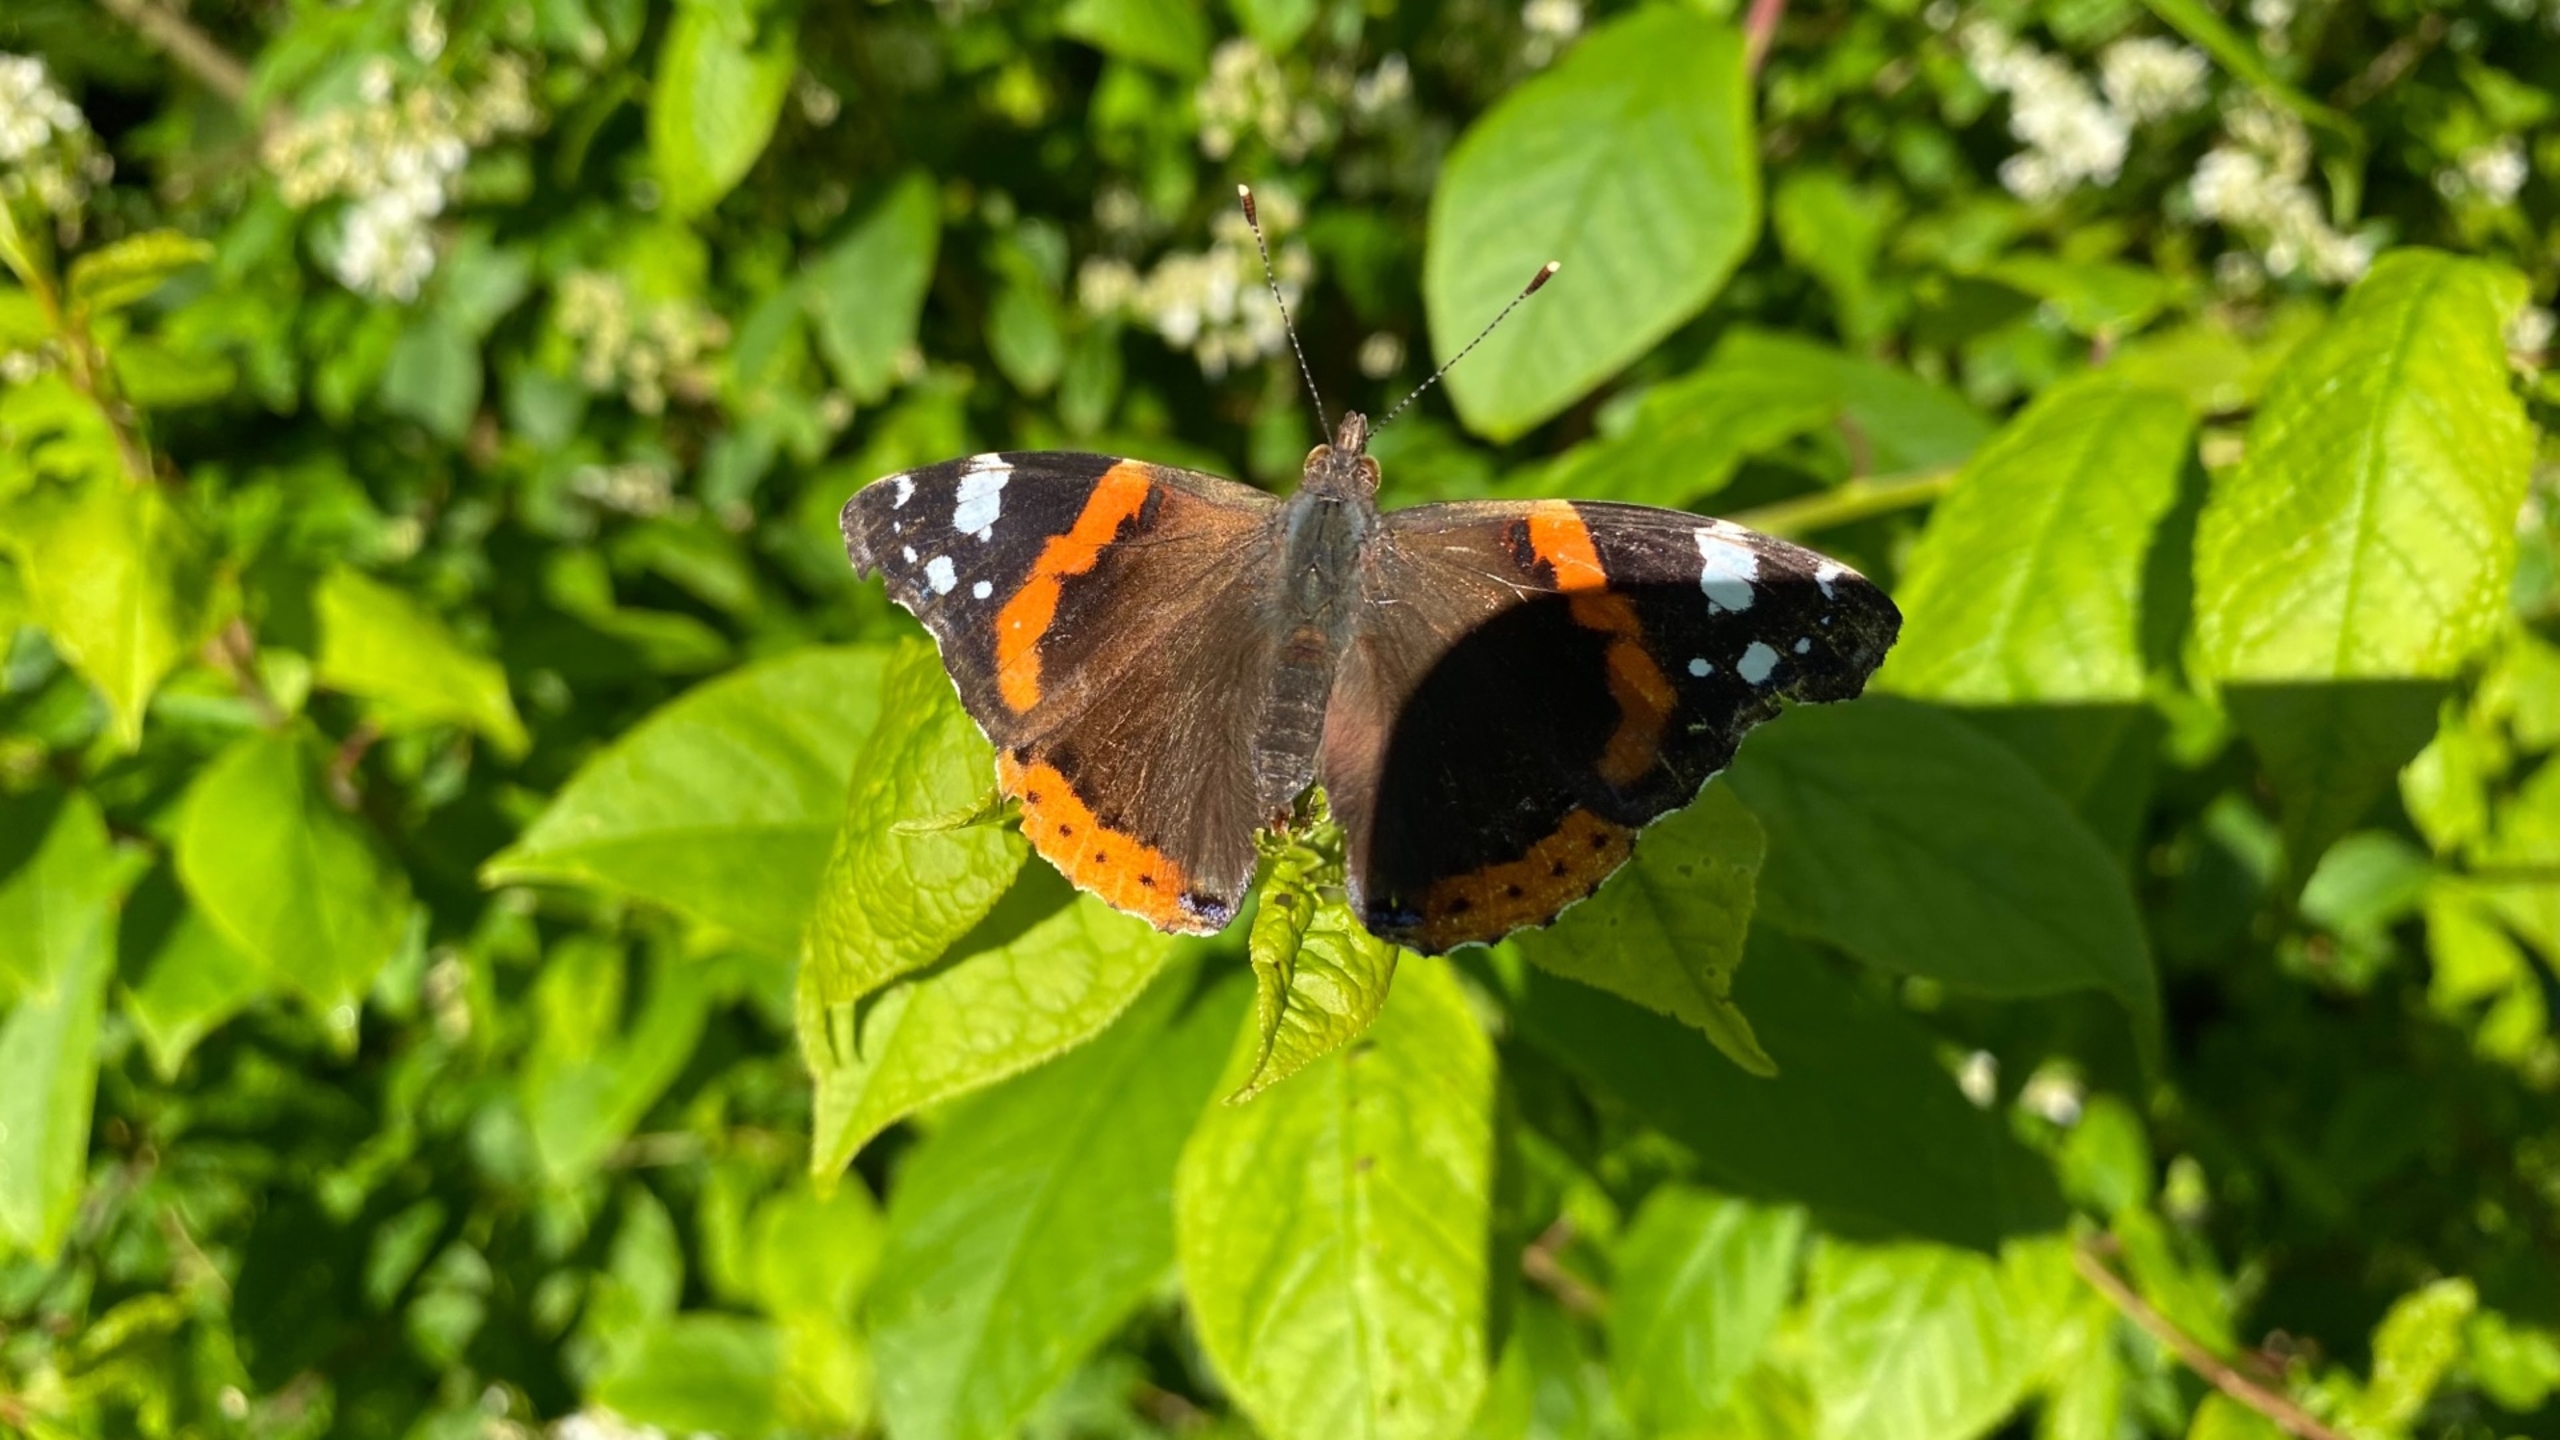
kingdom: Animalia
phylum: Arthropoda
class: Insecta
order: Lepidoptera
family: Nymphalidae
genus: Vanessa
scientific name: Vanessa atalanta
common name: Admiral
